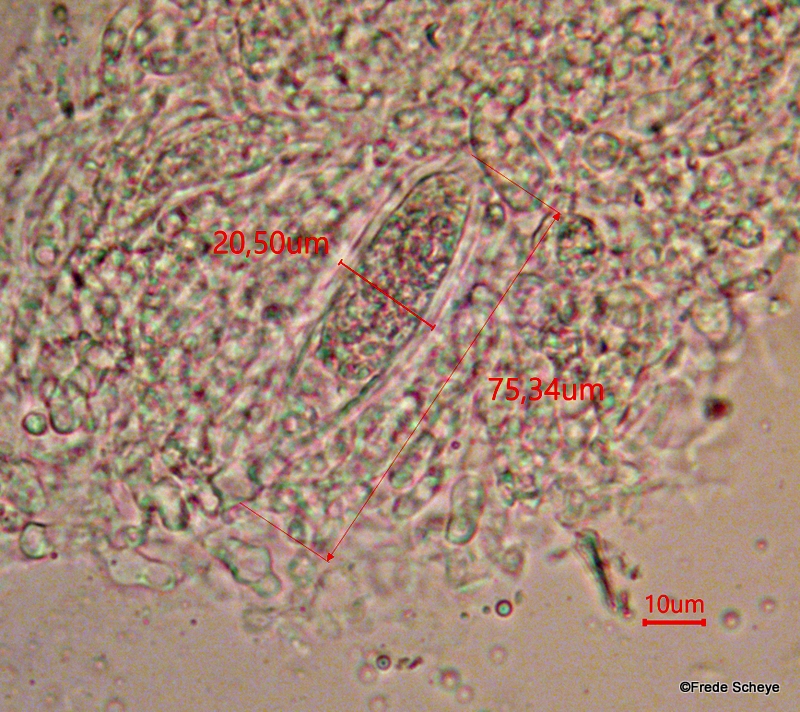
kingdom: Fungi
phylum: Ascomycota
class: Dothideomycetes
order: Pleosporales
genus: Rhopographus
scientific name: Rhopographus filicinus
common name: Bracken map
